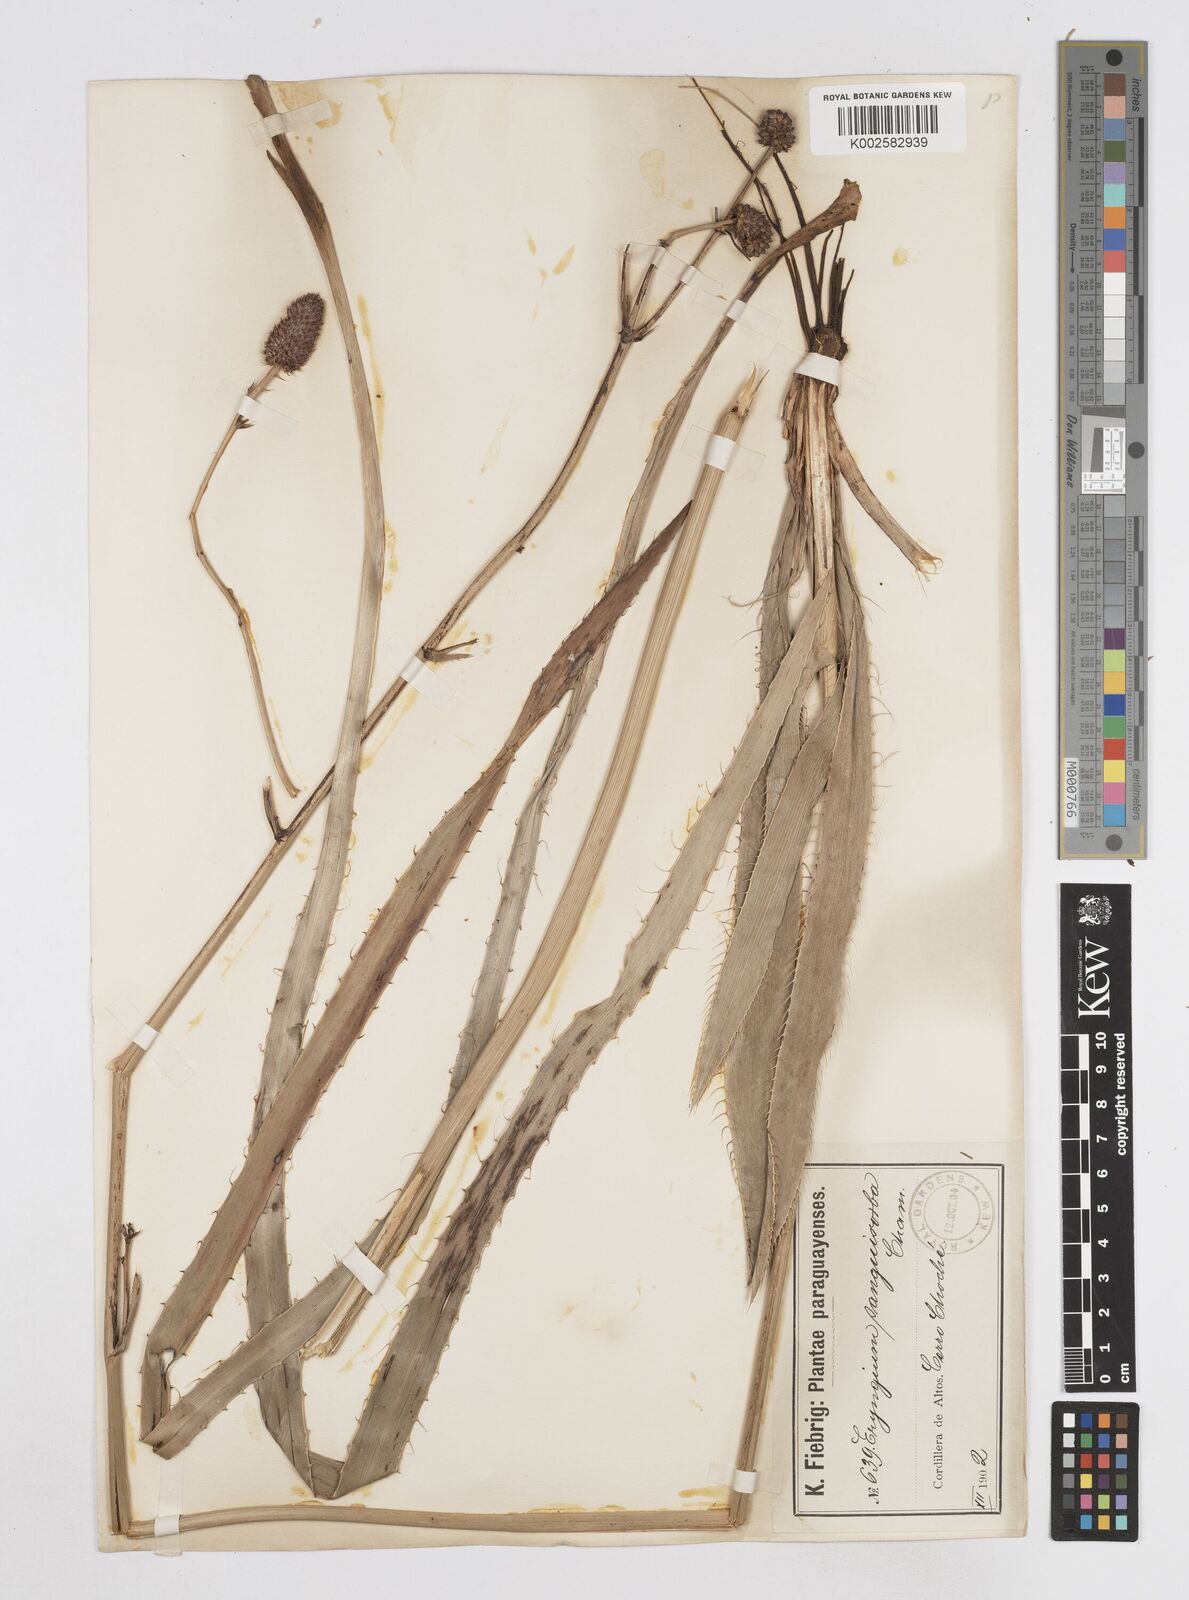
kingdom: Plantae
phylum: Tracheophyta
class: Magnoliopsida
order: Apiales
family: Apiaceae
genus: Eryngium
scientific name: Eryngium sanguisorba
